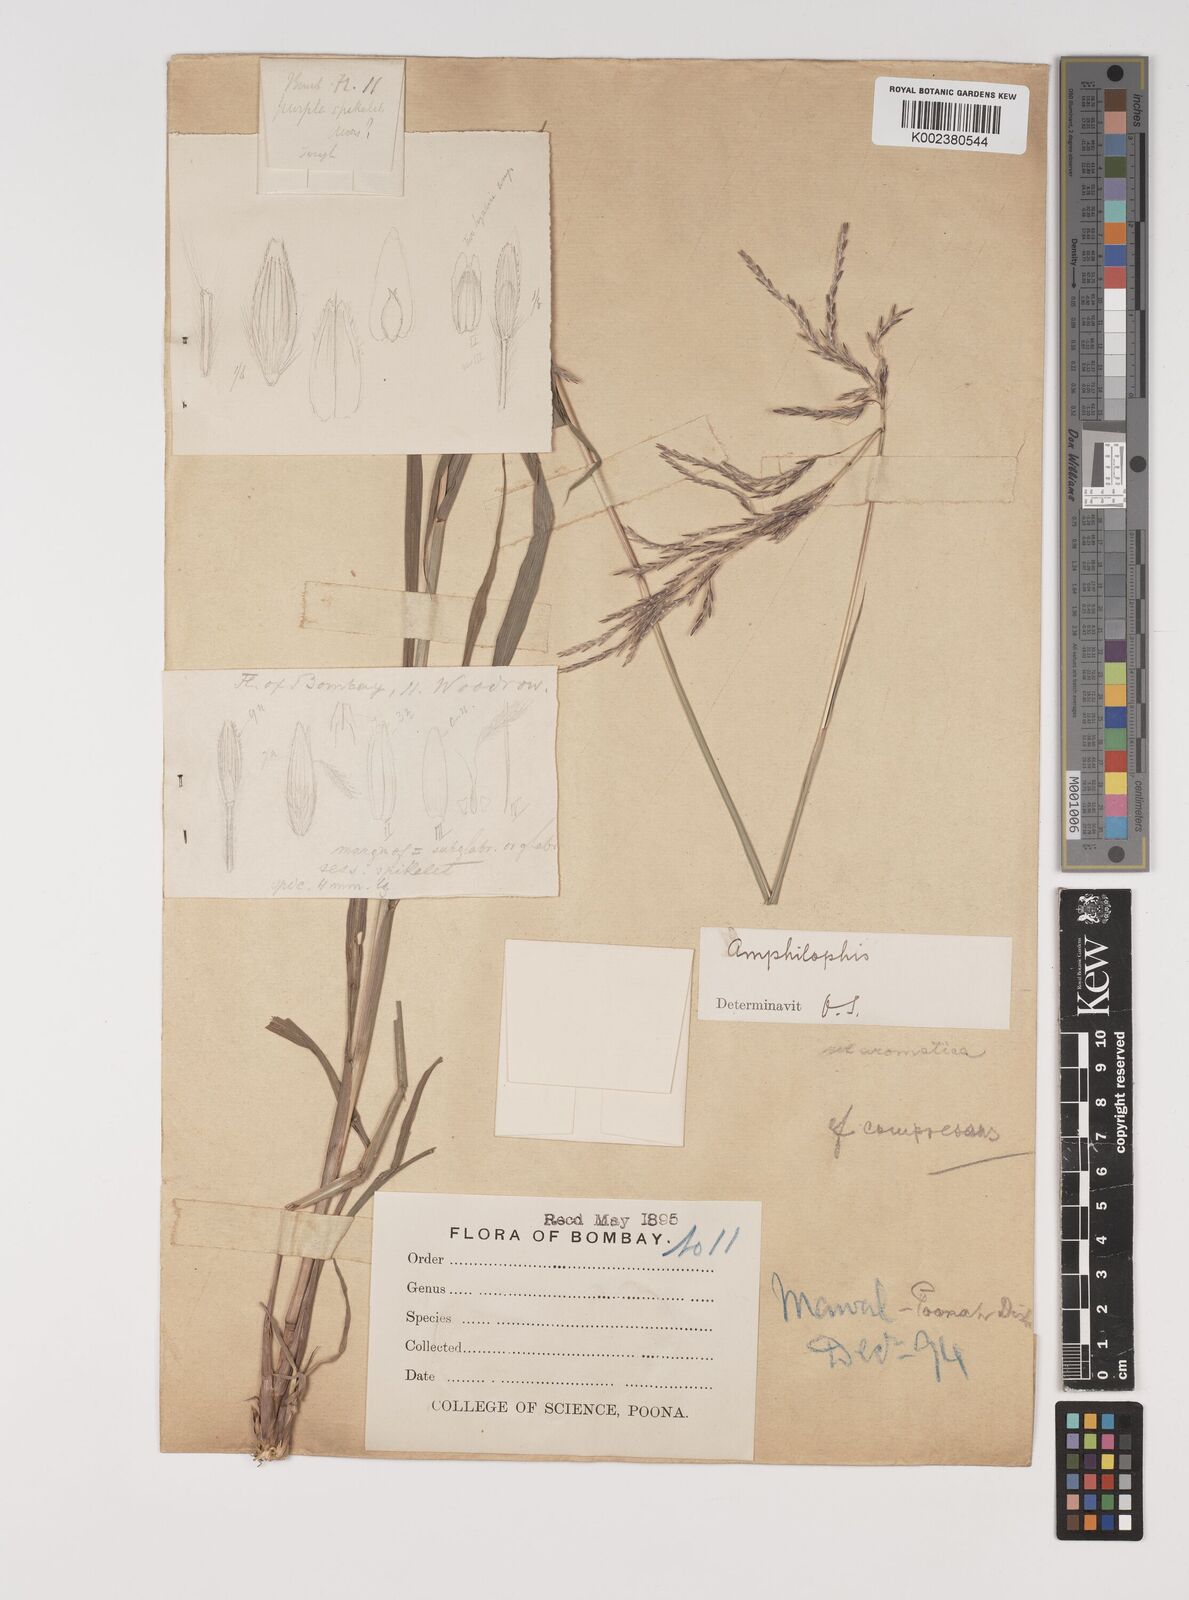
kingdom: Plantae
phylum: Tracheophyta
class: Liliopsida
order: Poales
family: Poaceae
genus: Bothriochloa
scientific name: Bothriochloa bladhii
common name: Caucasian bluestem
